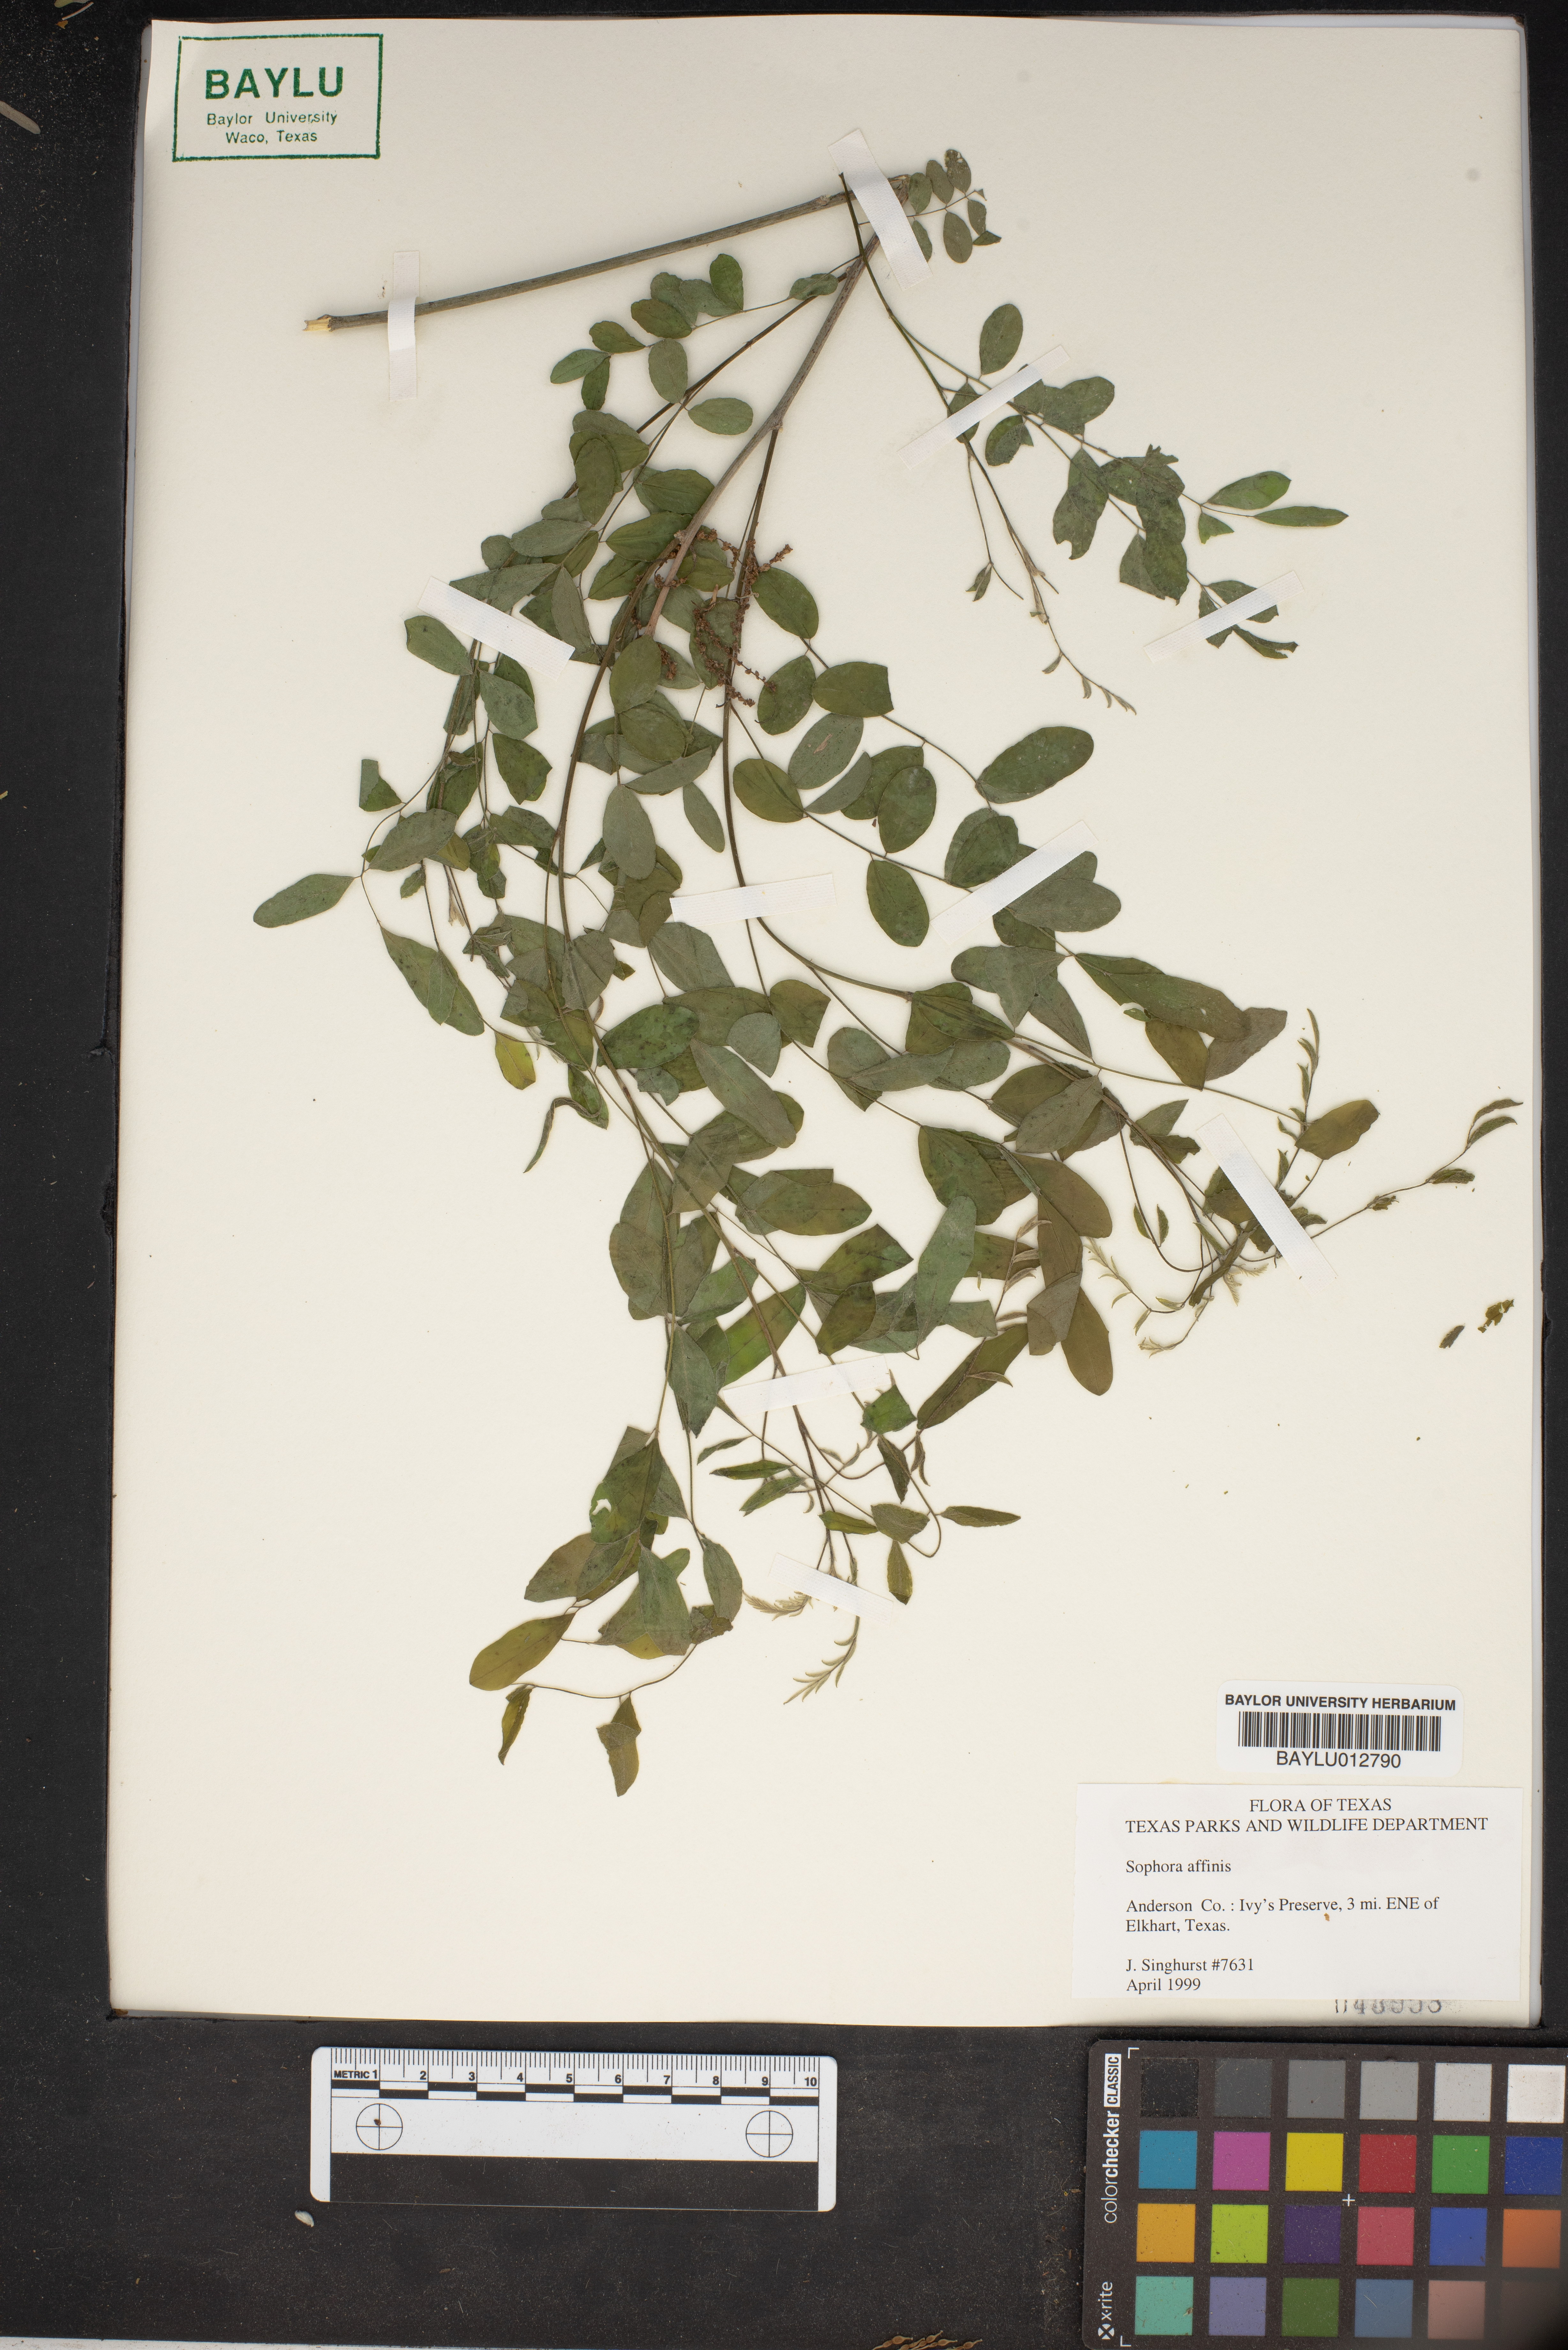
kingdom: Plantae
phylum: Tracheophyta
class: Magnoliopsida
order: Fabales
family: Fabaceae
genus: Styphnolobium
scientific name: Styphnolobium affine
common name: Texas sophora
